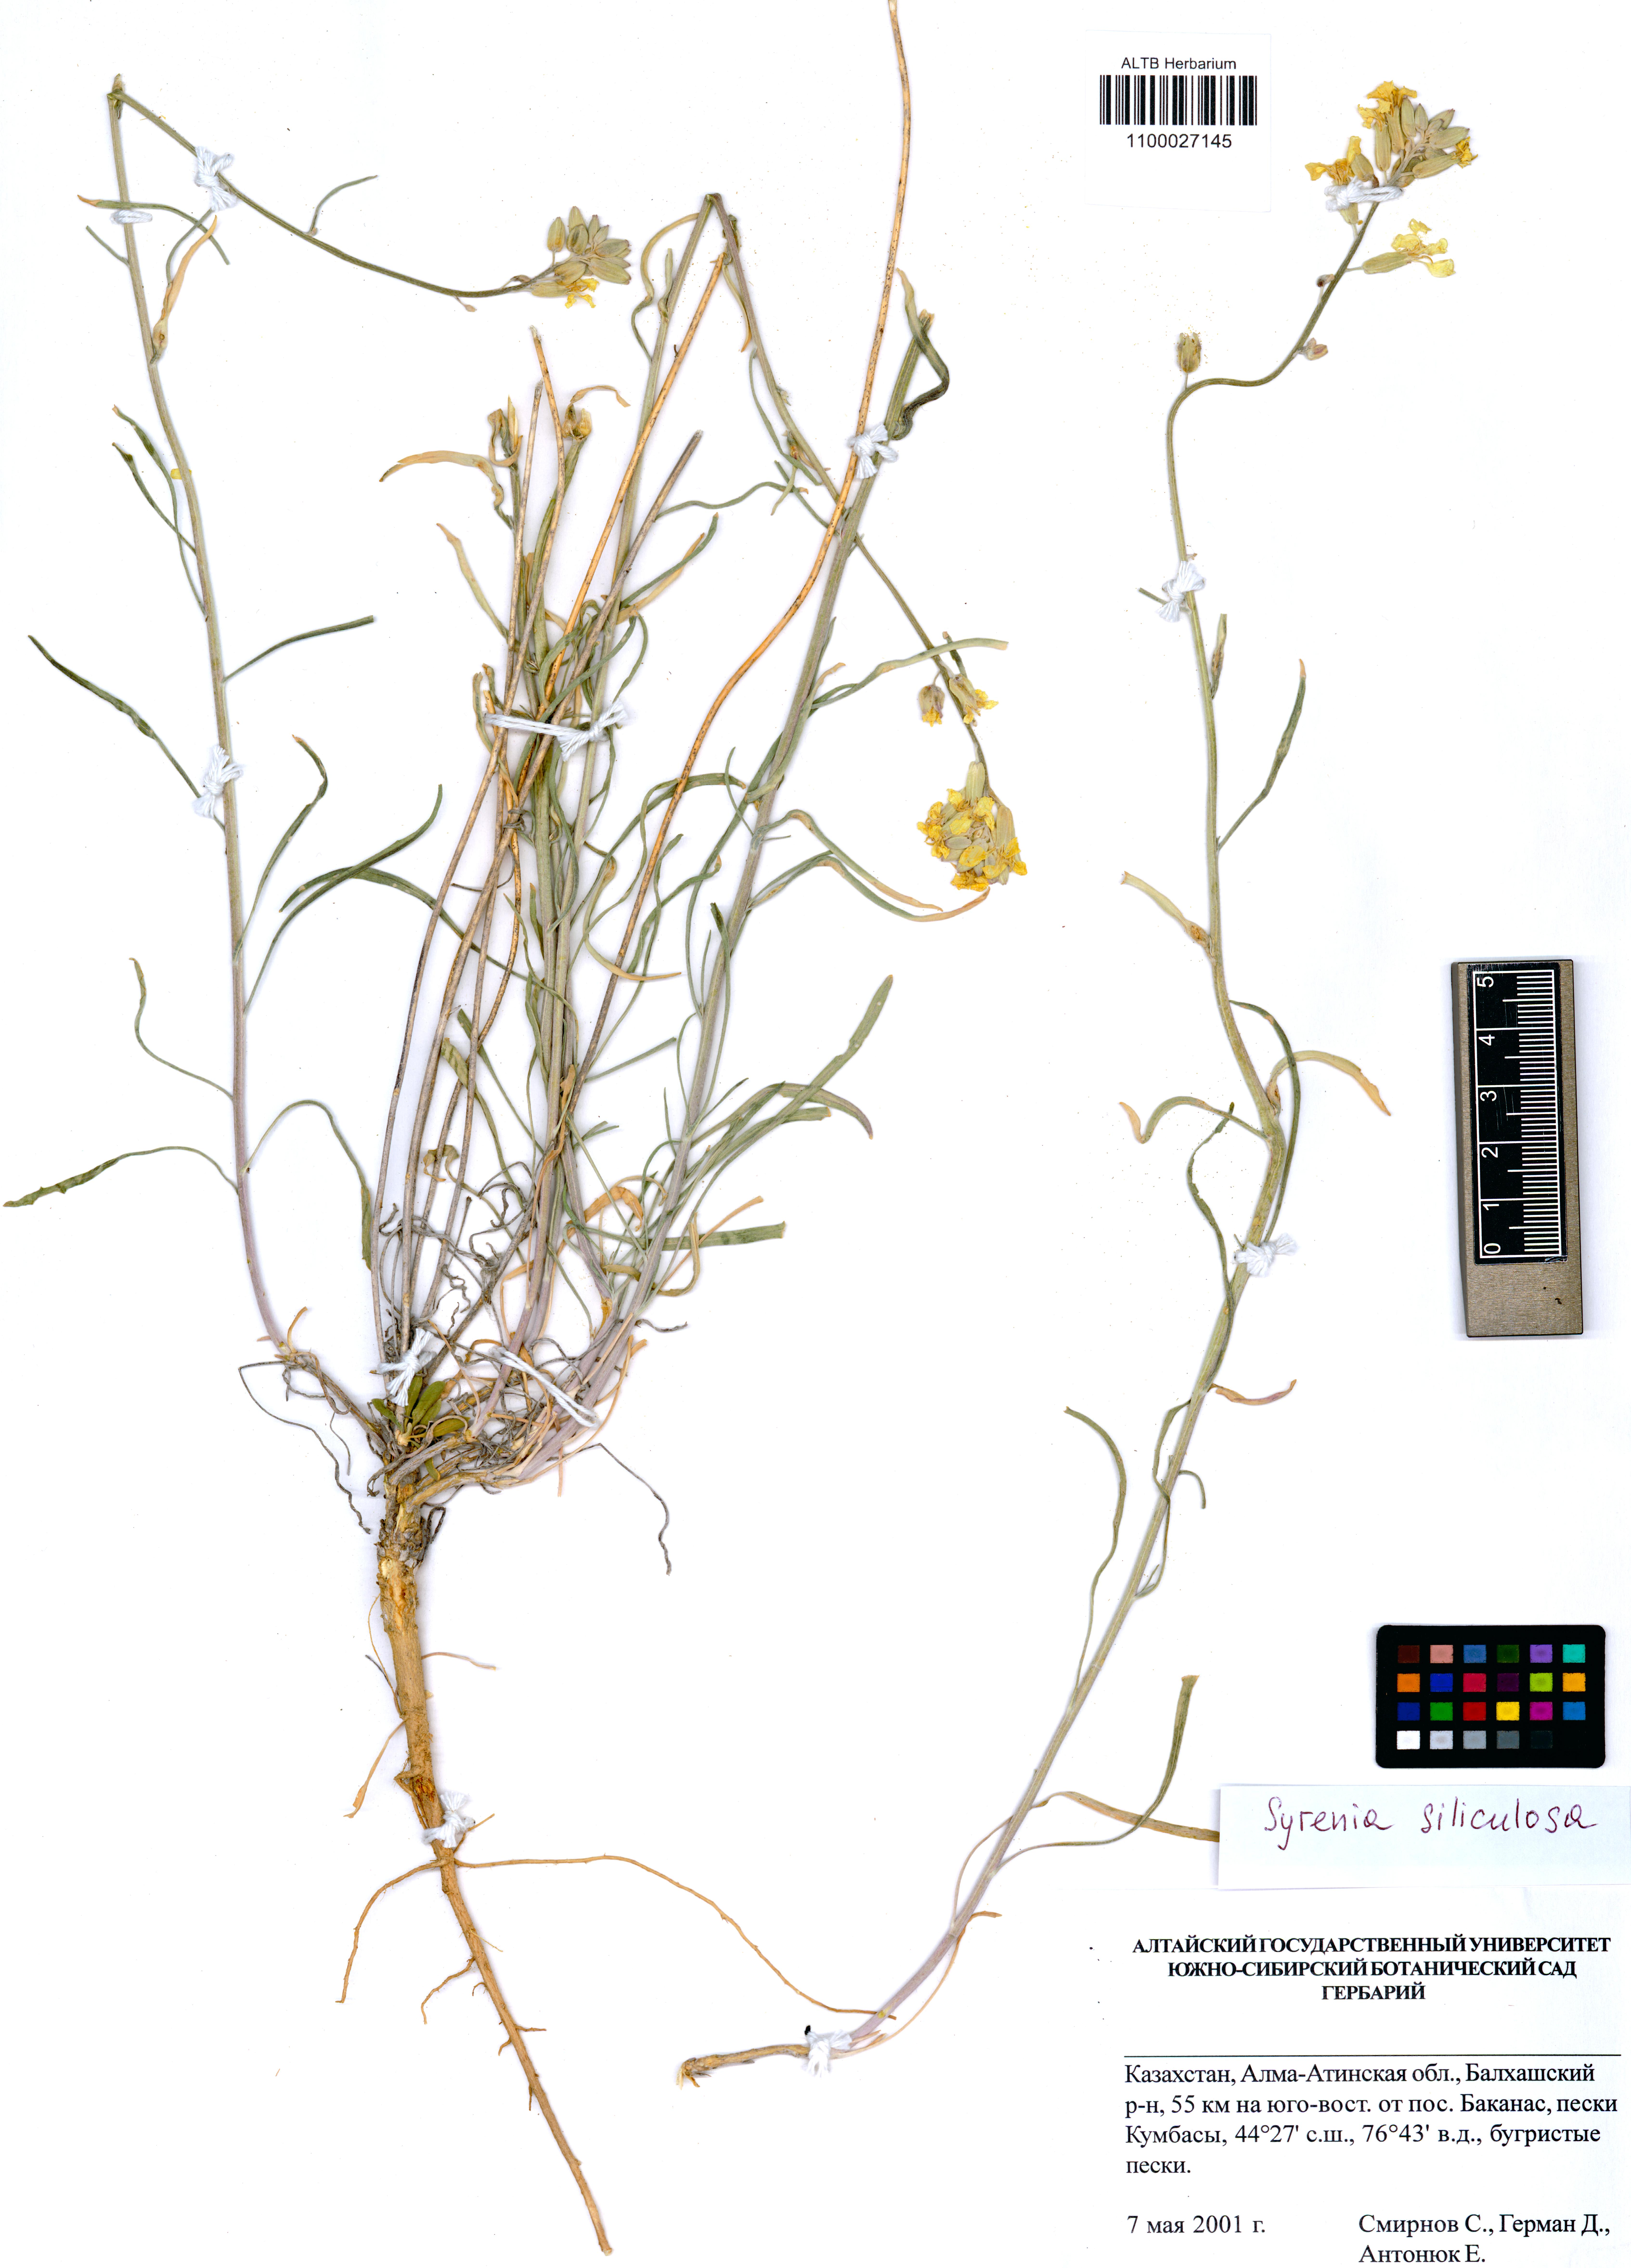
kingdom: Plantae
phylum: Tracheophyta
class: Magnoliopsida
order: Brassicales
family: Brassicaceae
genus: Syrenia
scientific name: Syrenia siliculosa
